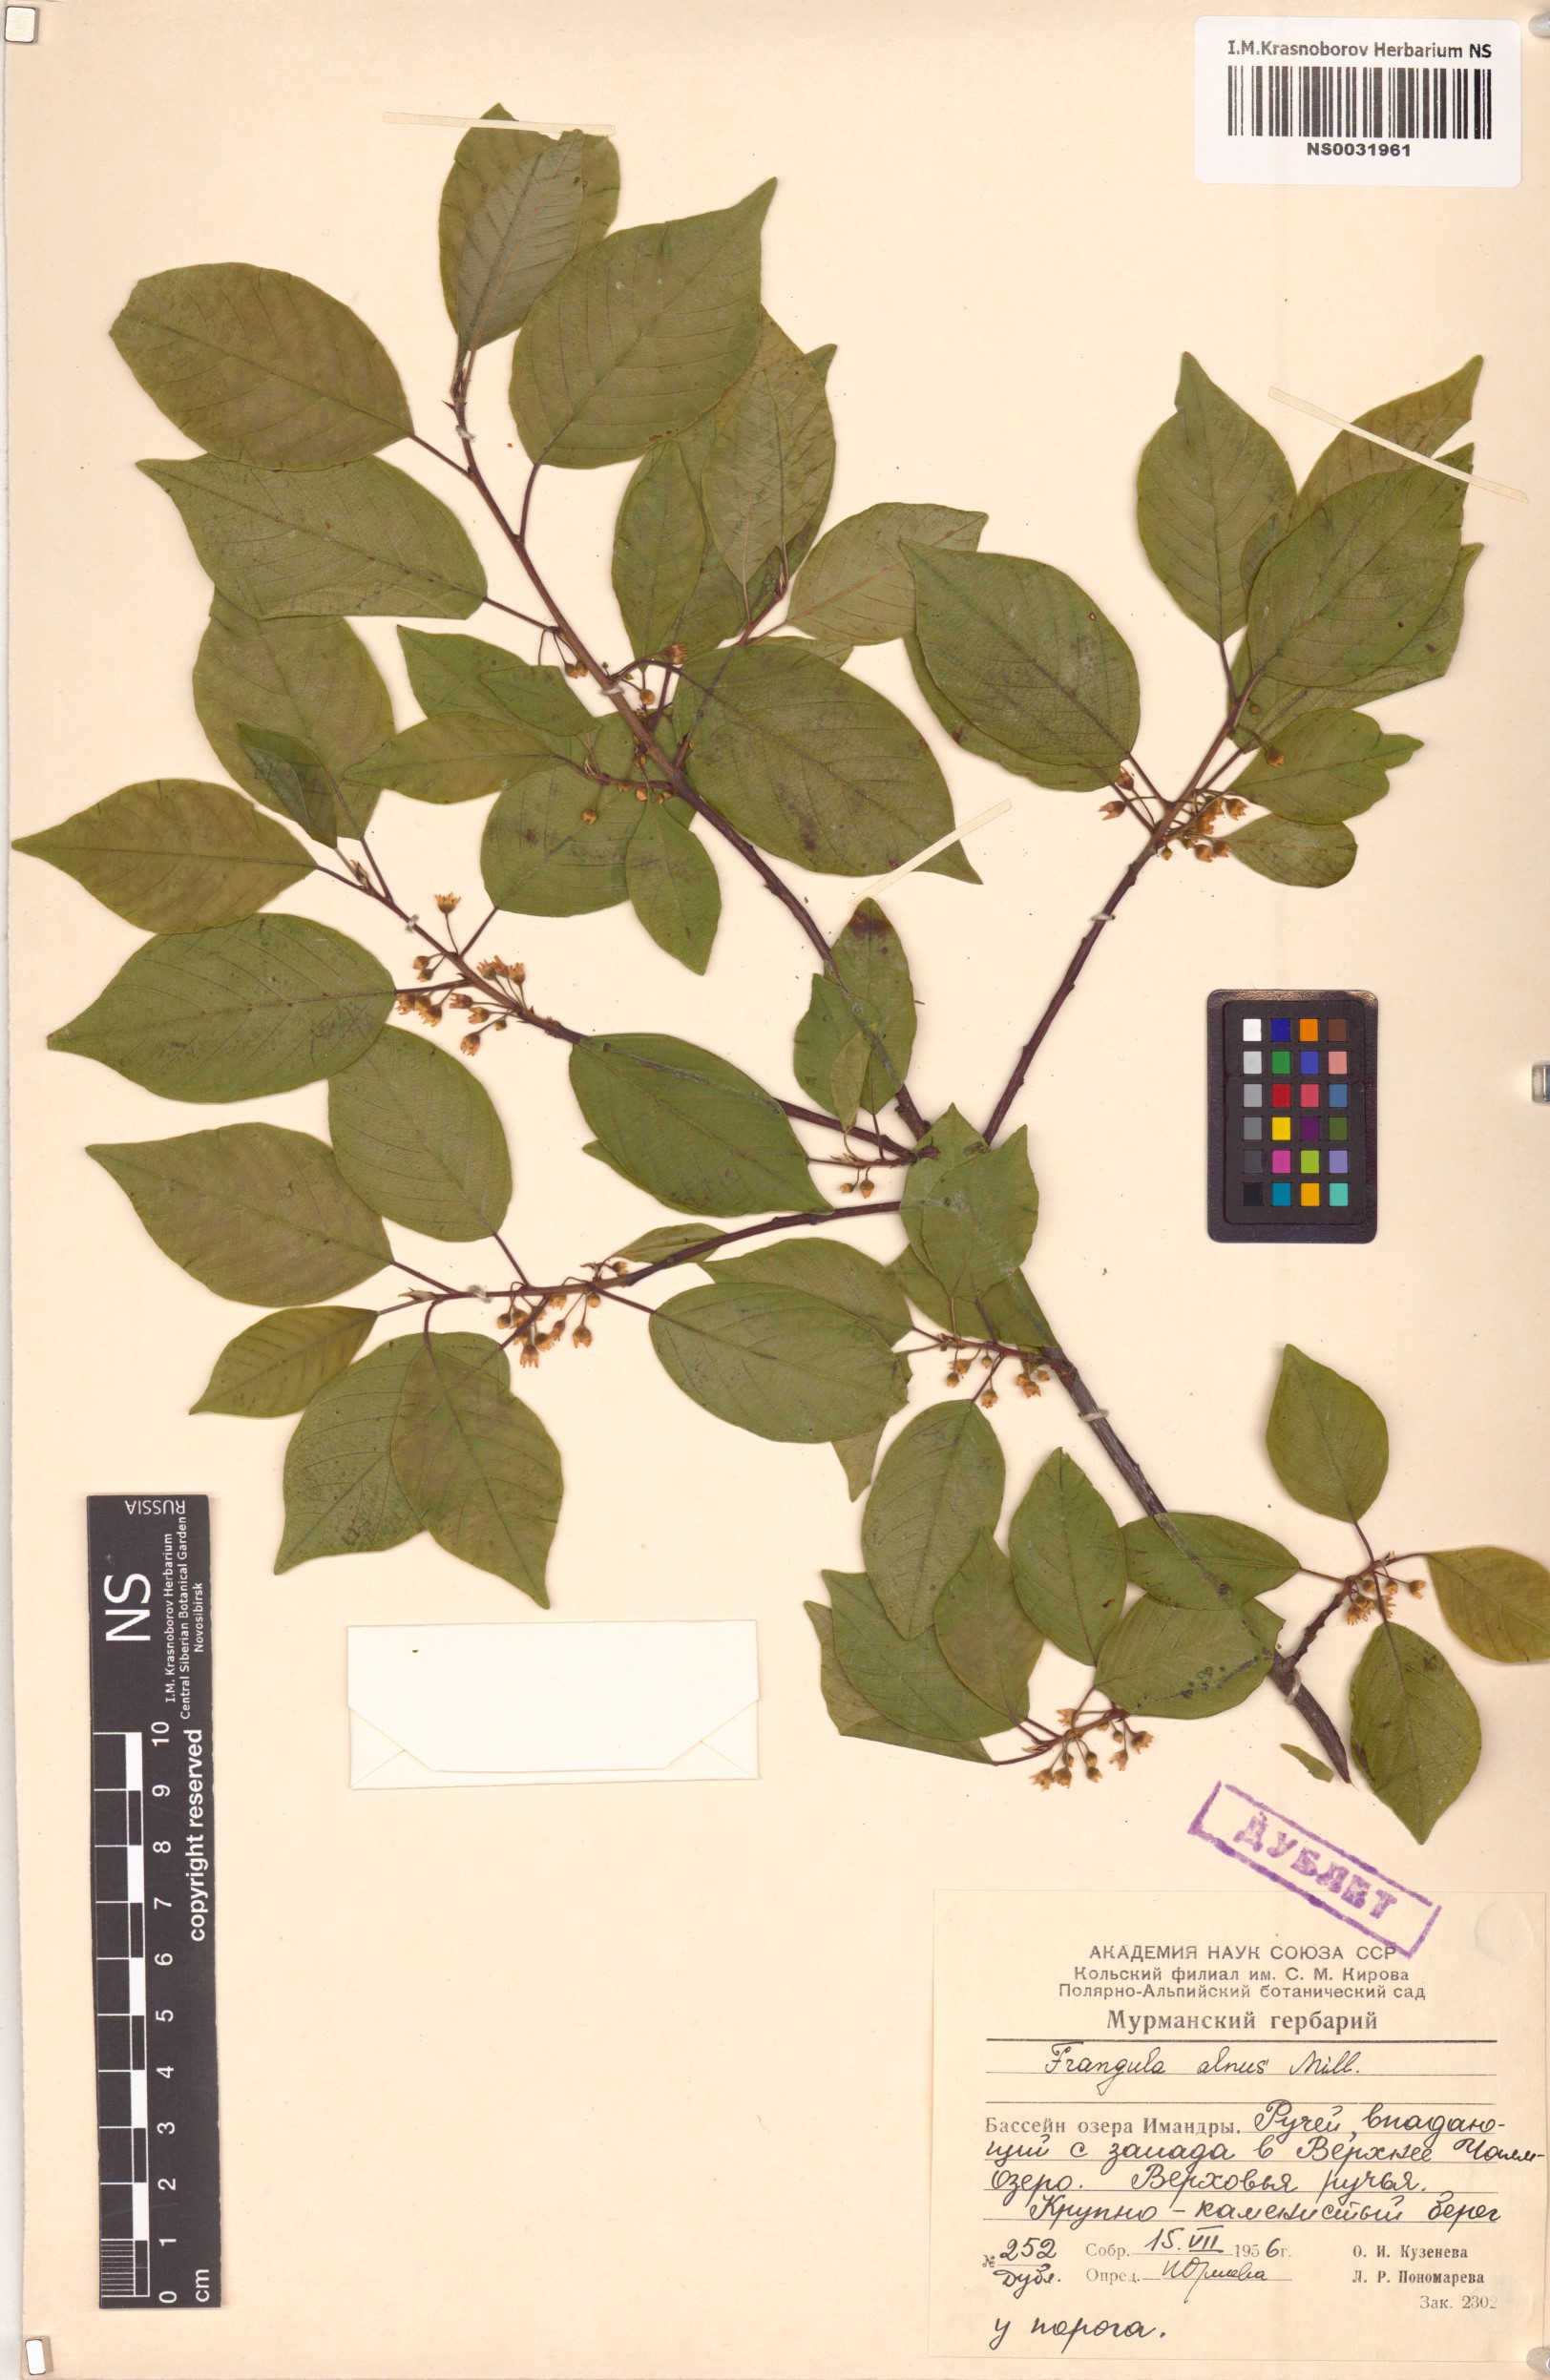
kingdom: Plantae
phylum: Tracheophyta
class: Magnoliopsida
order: Rosales
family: Rhamnaceae
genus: Frangula
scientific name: Frangula alnus
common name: Alder buckthorn
